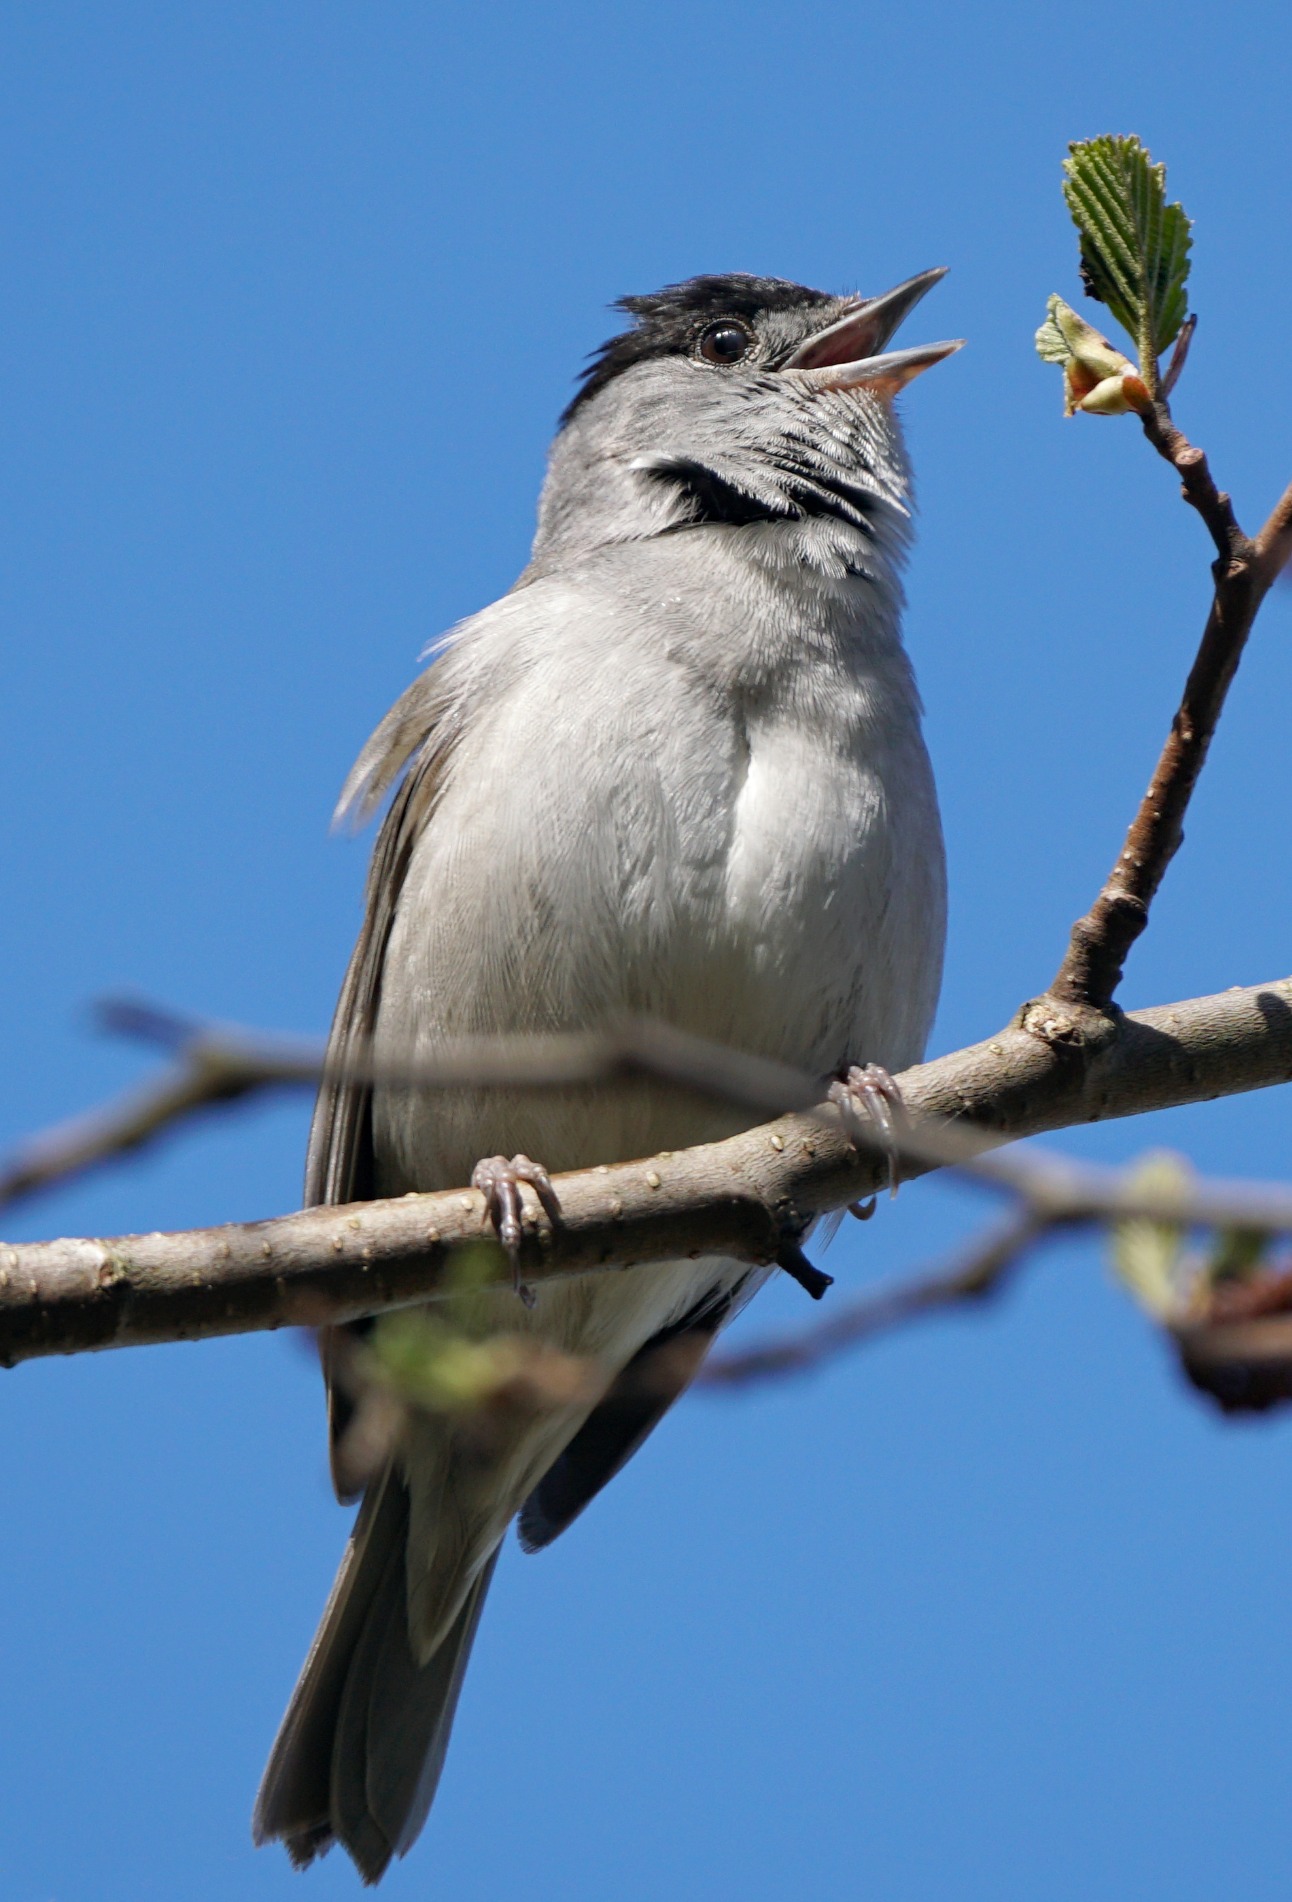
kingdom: Animalia
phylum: Chordata
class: Aves
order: Passeriformes
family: Sylviidae
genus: Sylvia
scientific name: Sylvia atricapilla
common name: Munk
